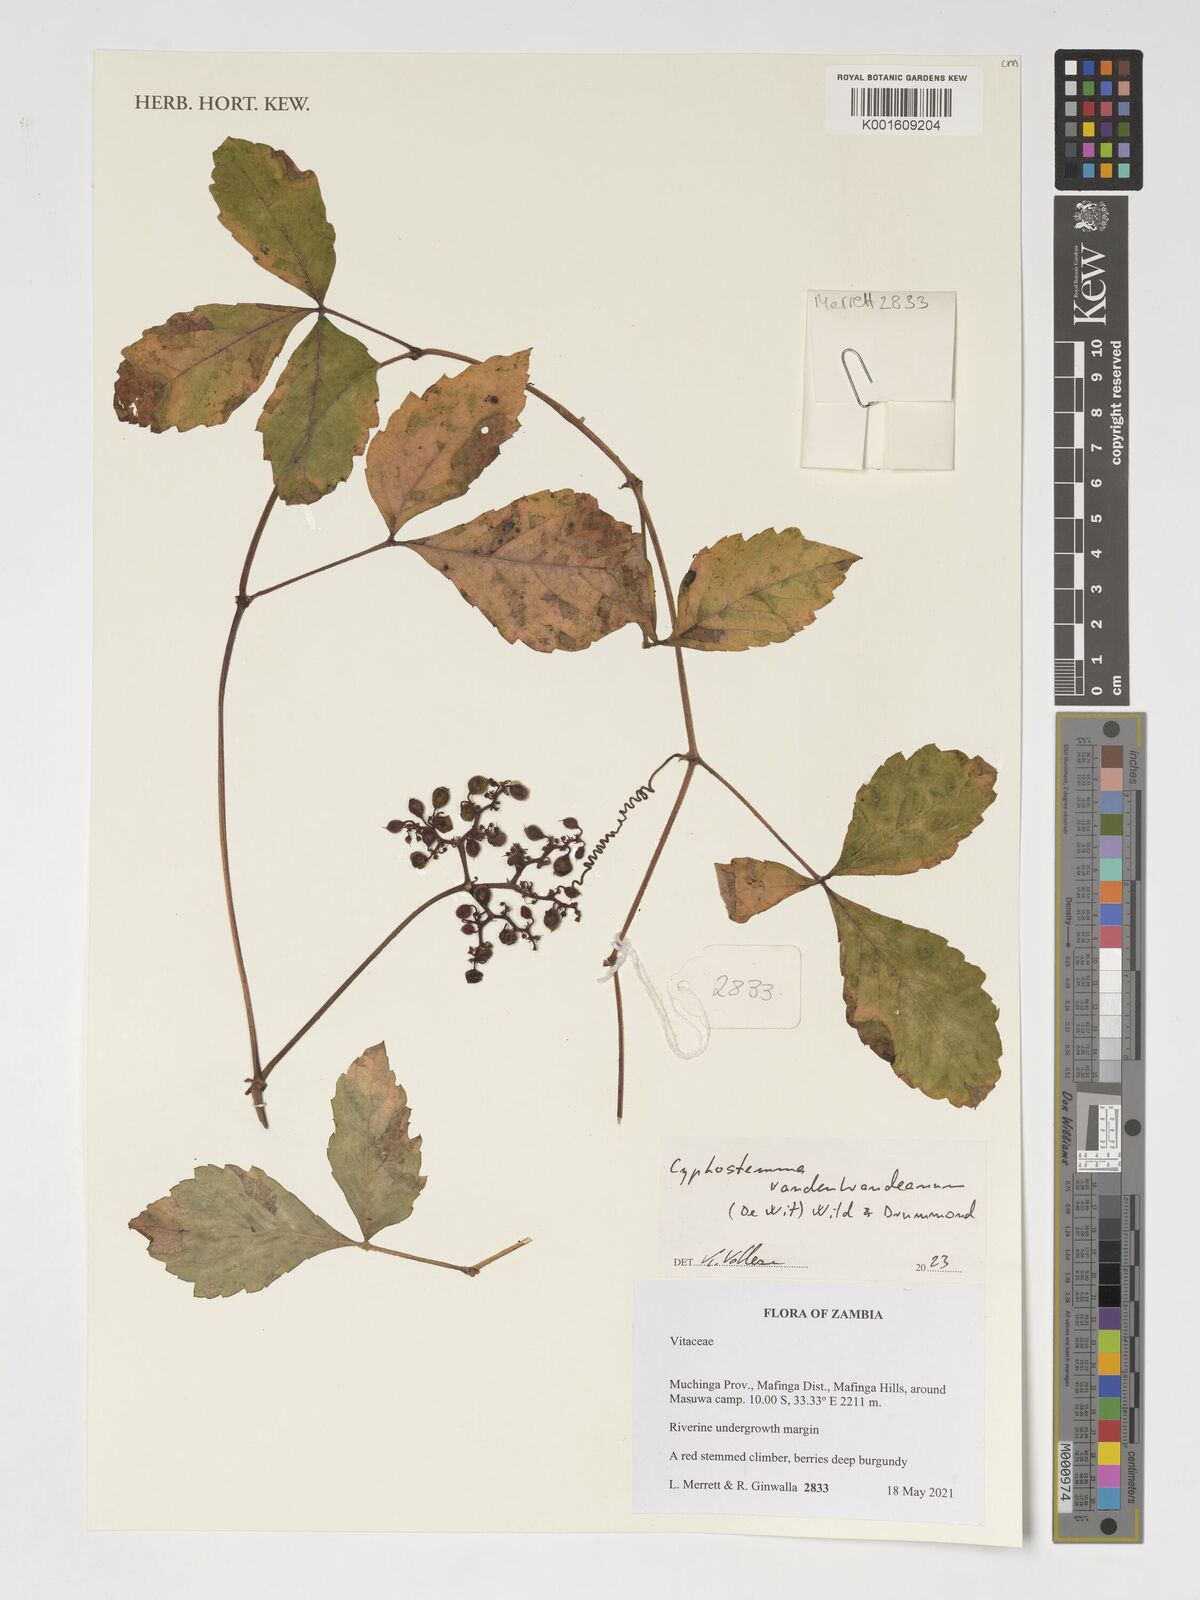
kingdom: Plantae
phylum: Tracheophyta
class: Magnoliopsida
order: Vitales
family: Vitaceae
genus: Cyphostemma
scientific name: Cyphostemma vandenbrandeanum
